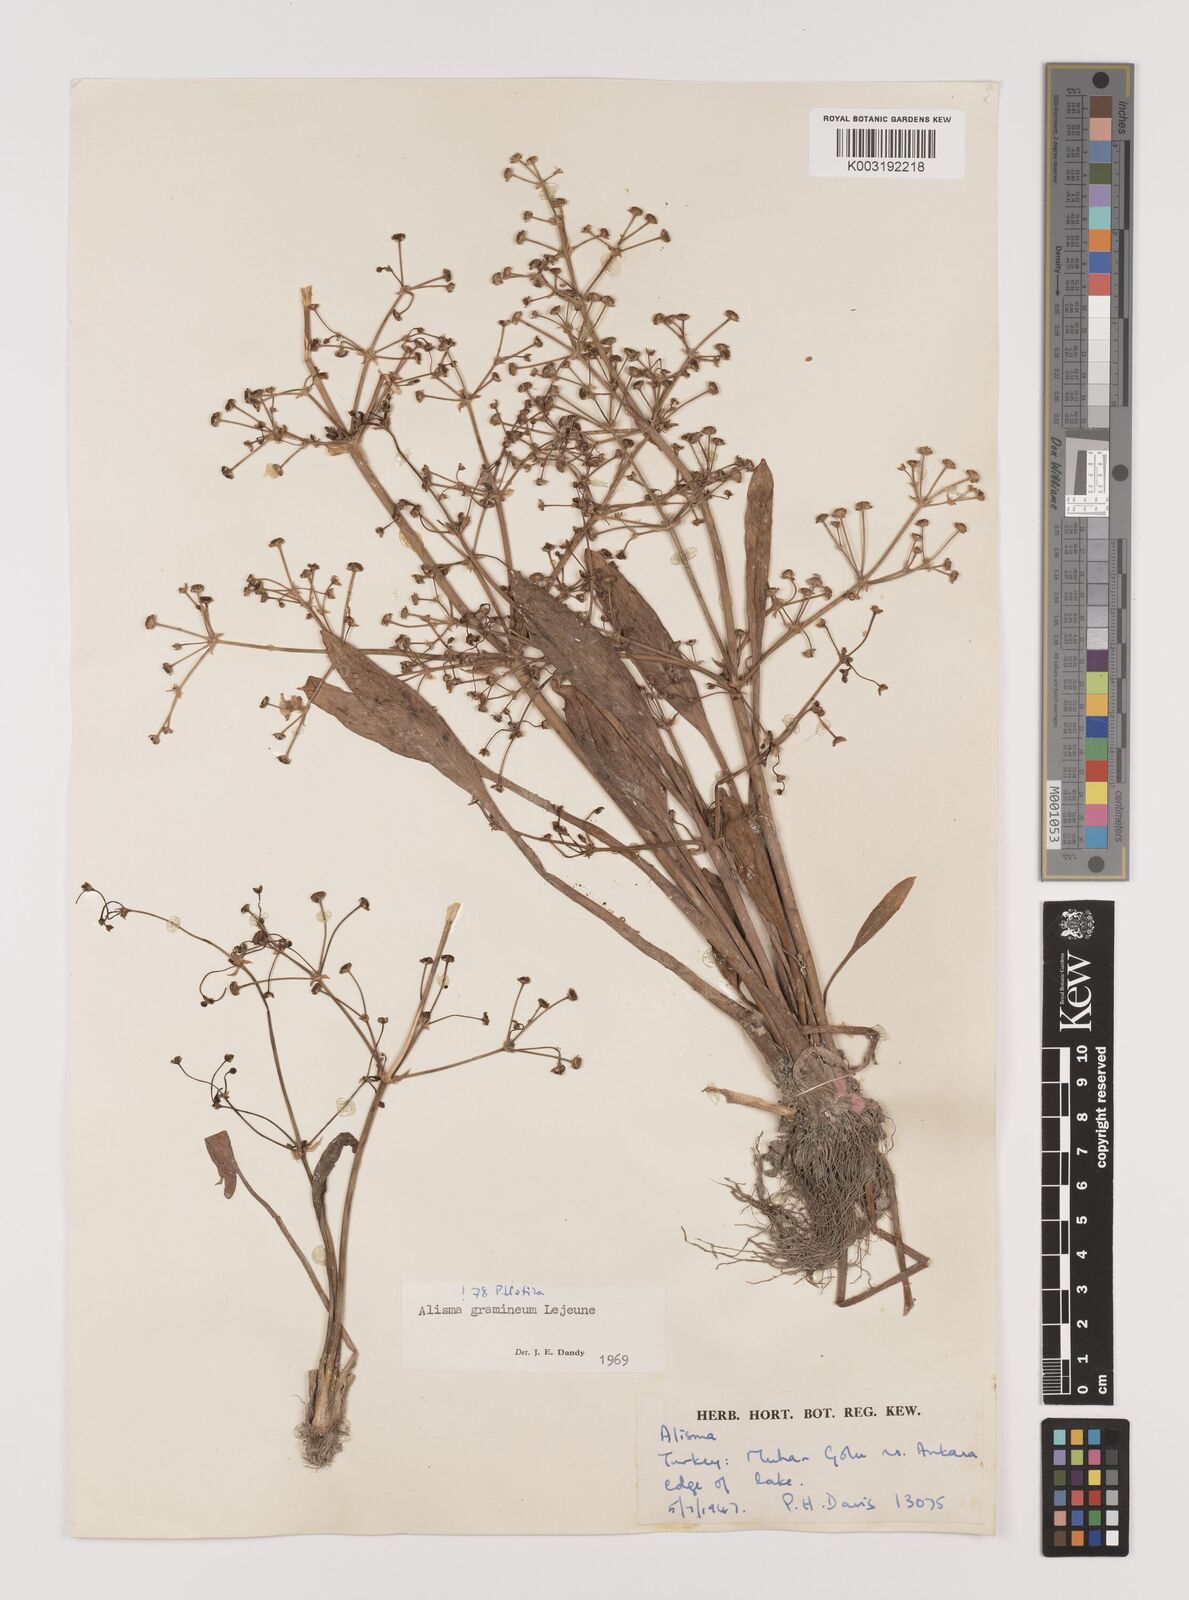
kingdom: Plantae
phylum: Tracheophyta
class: Liliopsida
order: Alismatales
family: Alismataceae
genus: Alisma
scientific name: Alisma gramineum
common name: Ribbon-leaved water-plantain
